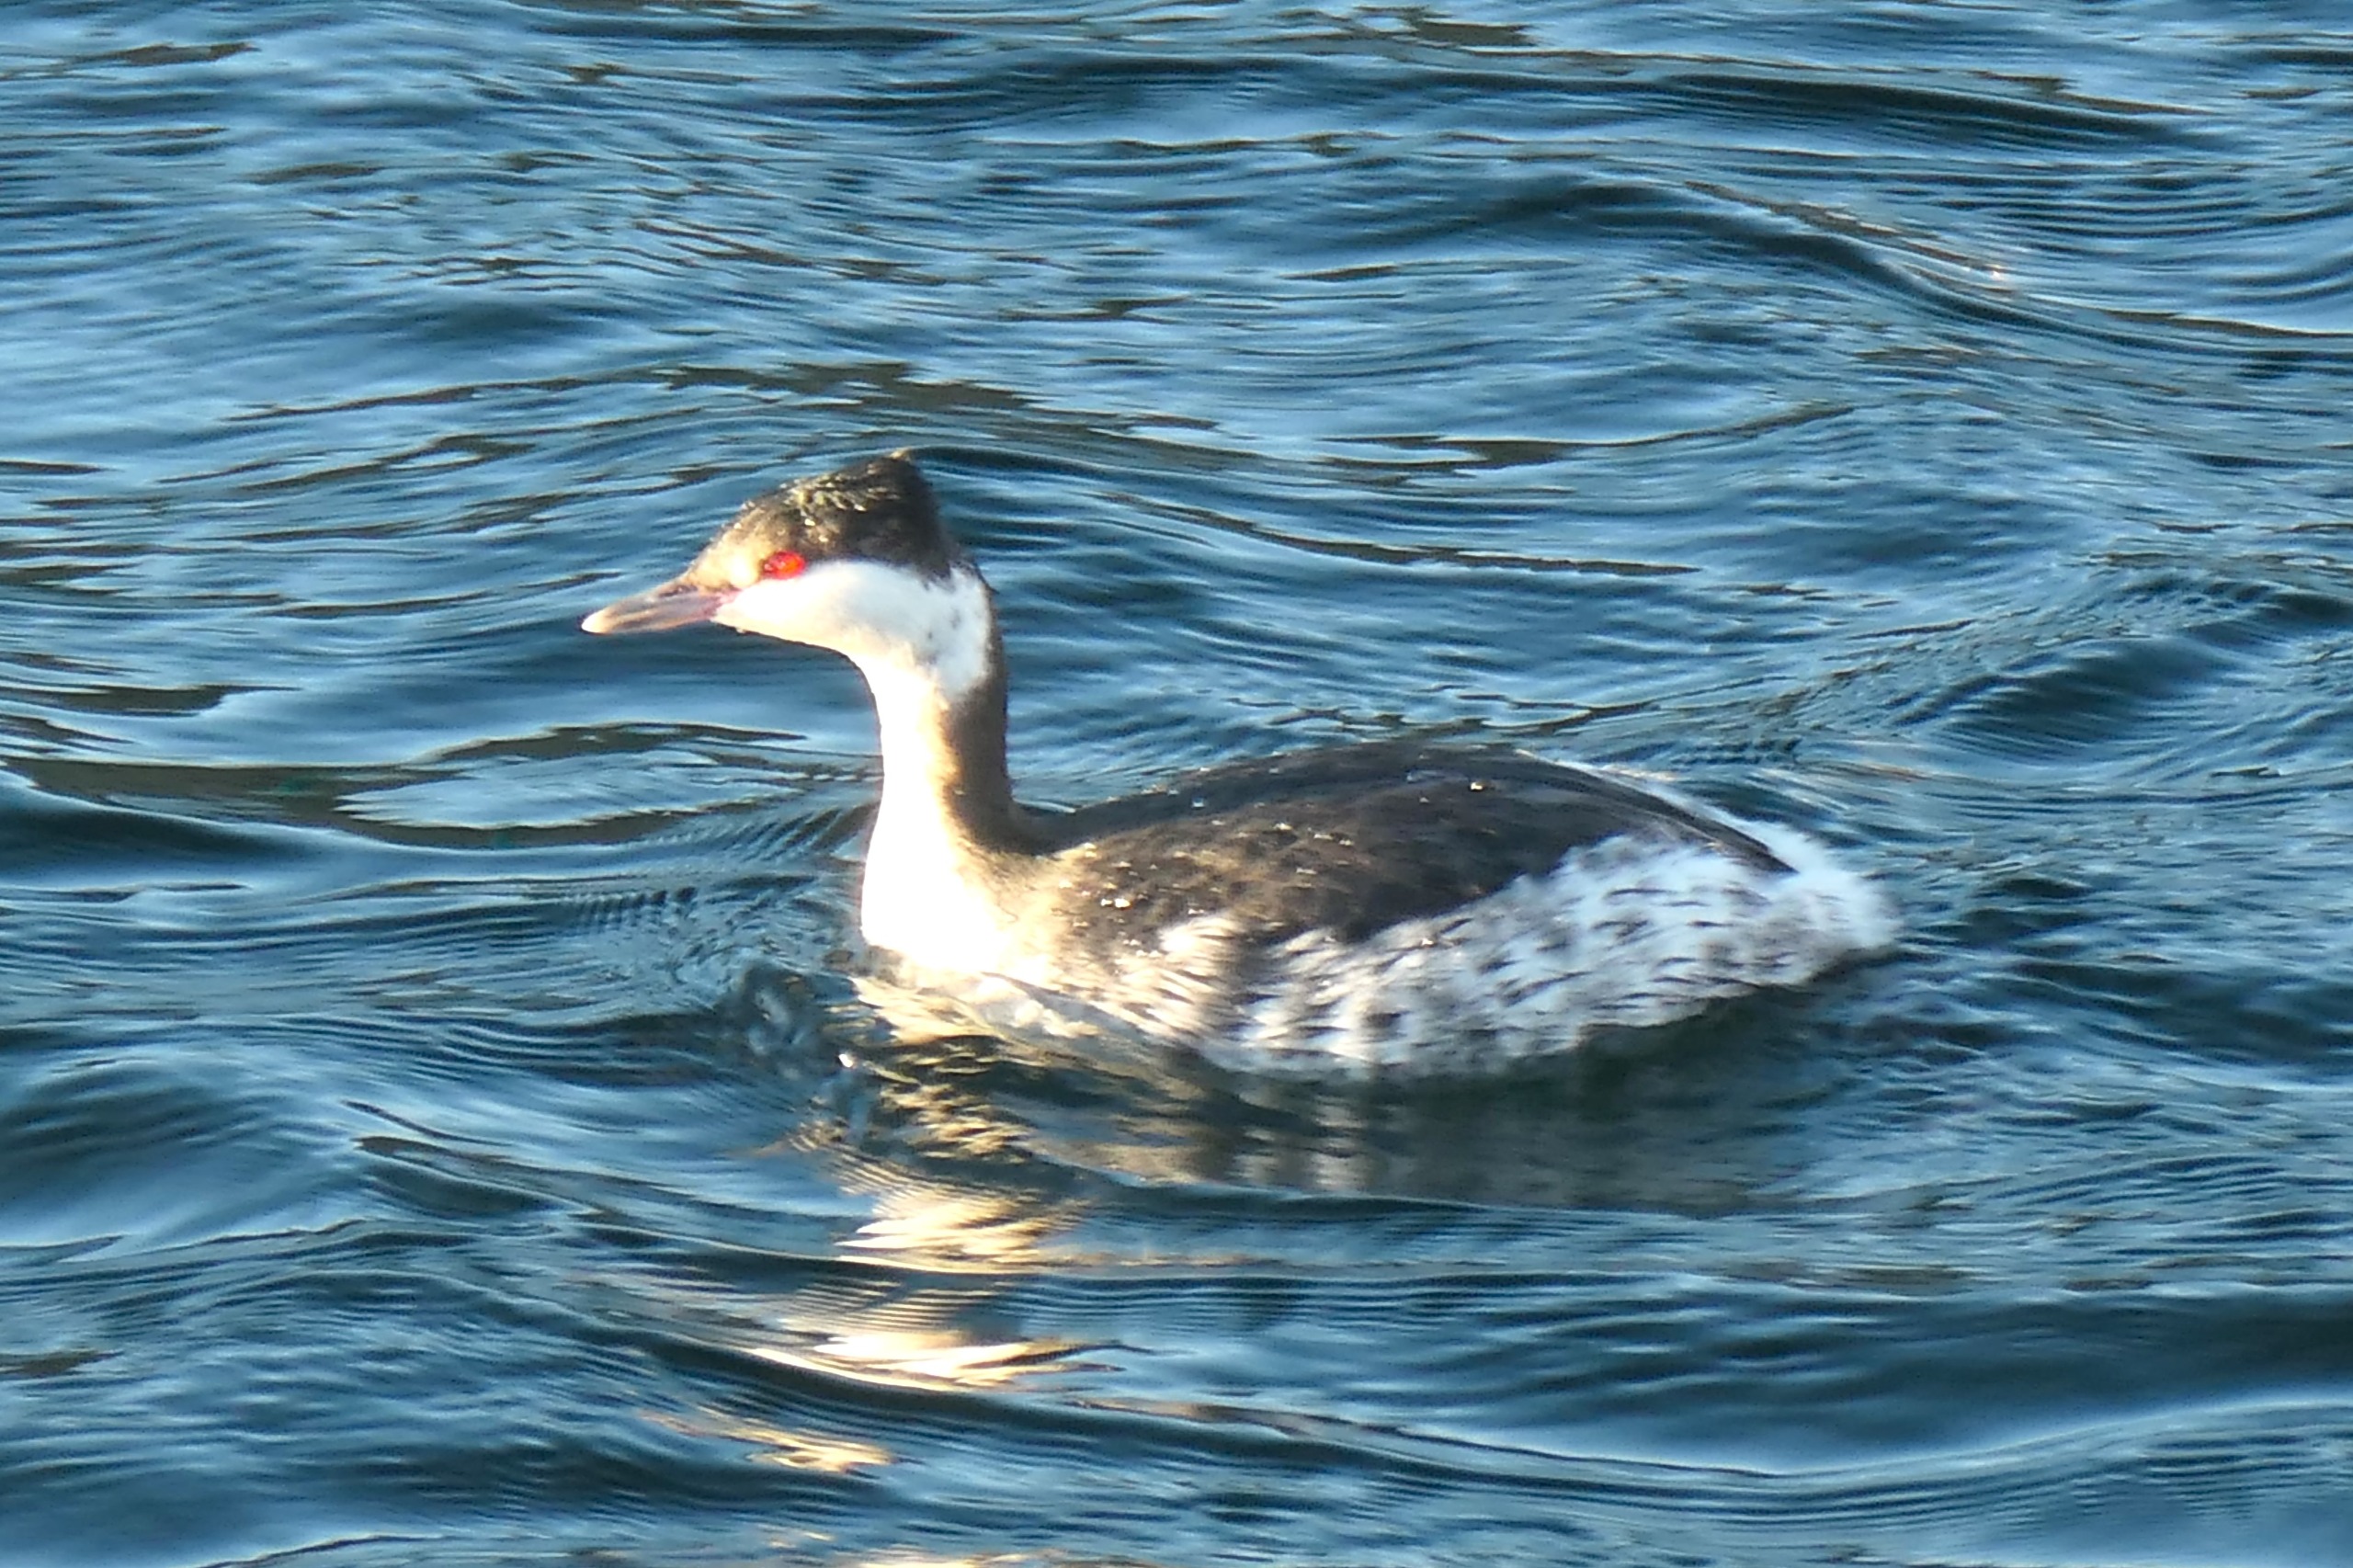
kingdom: Animalia
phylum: Chordata
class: Aves
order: Podicipediformes
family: Podicipedidae
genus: Podiceps
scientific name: Podiceps auritus
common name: Nordisk lappedykker
